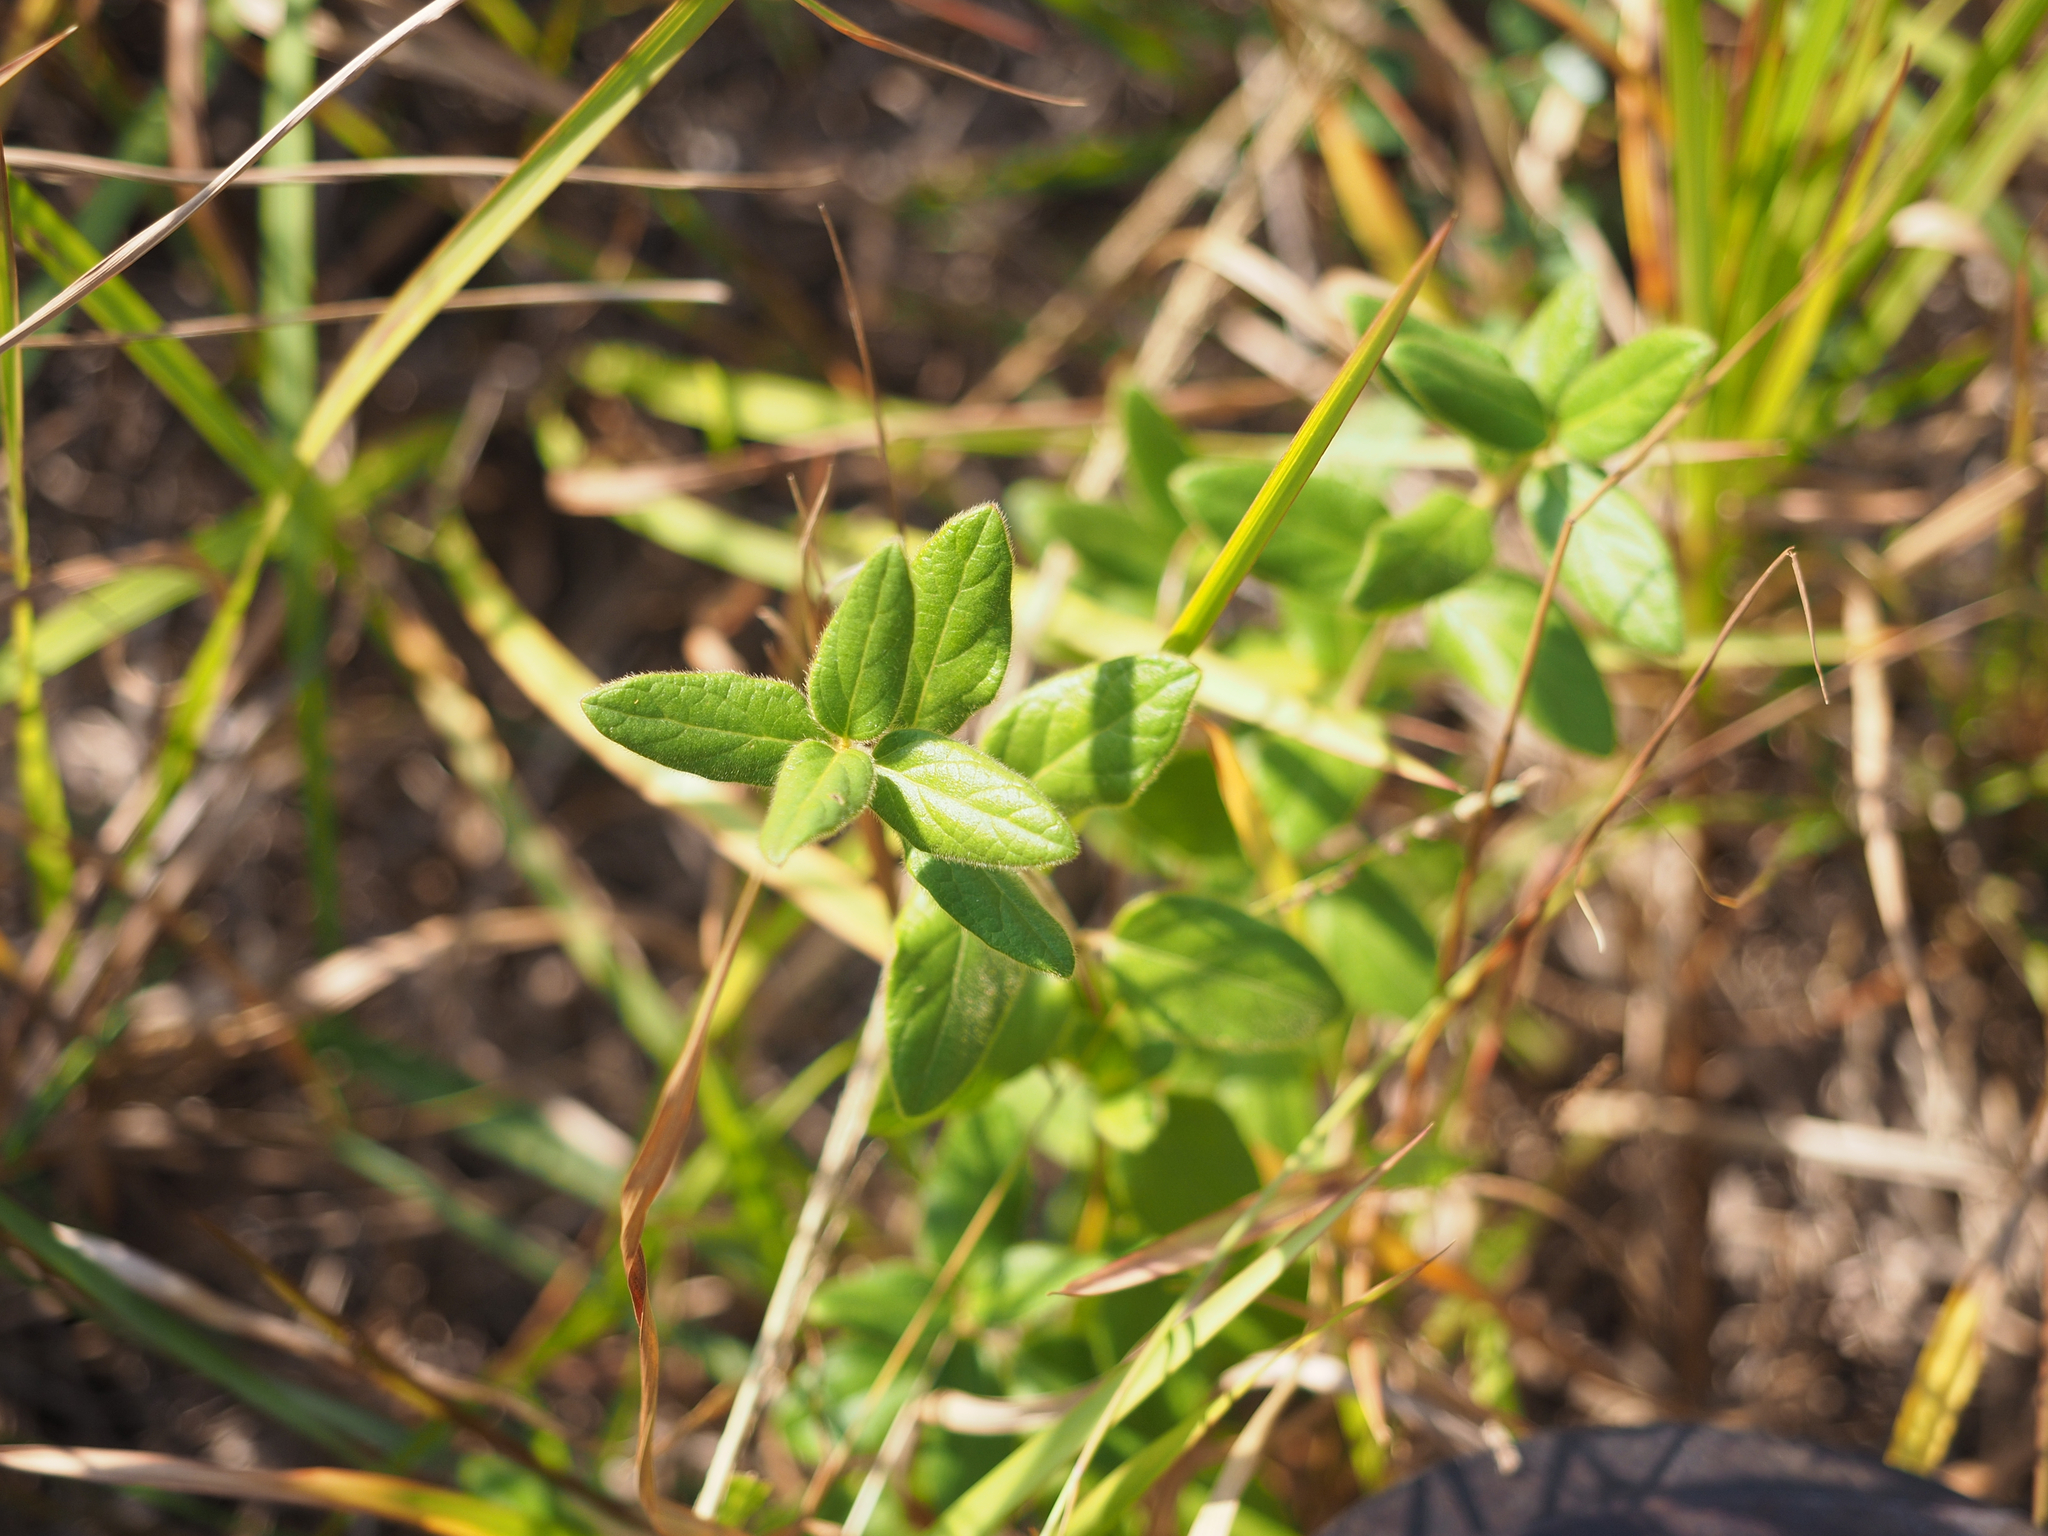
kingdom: Plantae
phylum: Tracheophyta
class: Magnoliopsida
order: Dipsacales
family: Caprifoliaceae
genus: Lonicera
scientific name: Lonicera japonica
